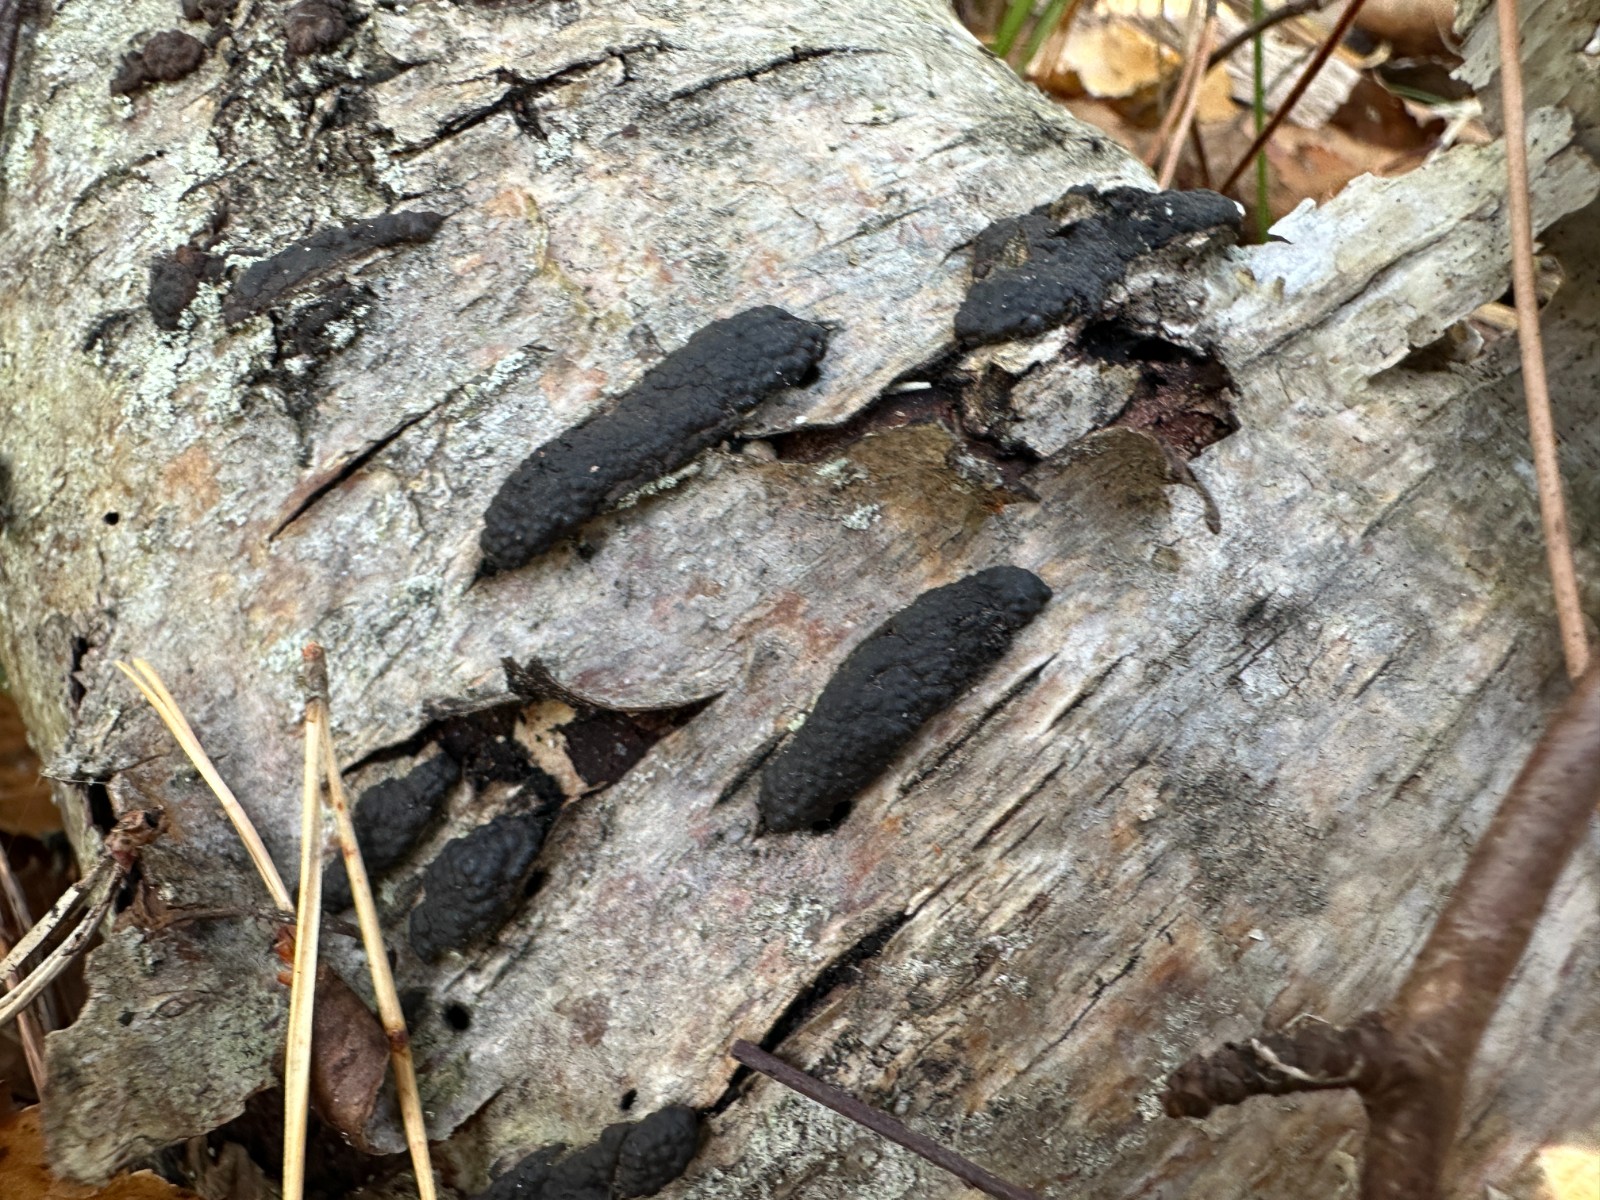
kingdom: Fungi
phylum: Ascomycota
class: Sordariomycetes
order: Xylariales
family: Hypoxylaceae
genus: Jackrogersella
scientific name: Jackrogersella multiformis
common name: foranderlig kulbær
